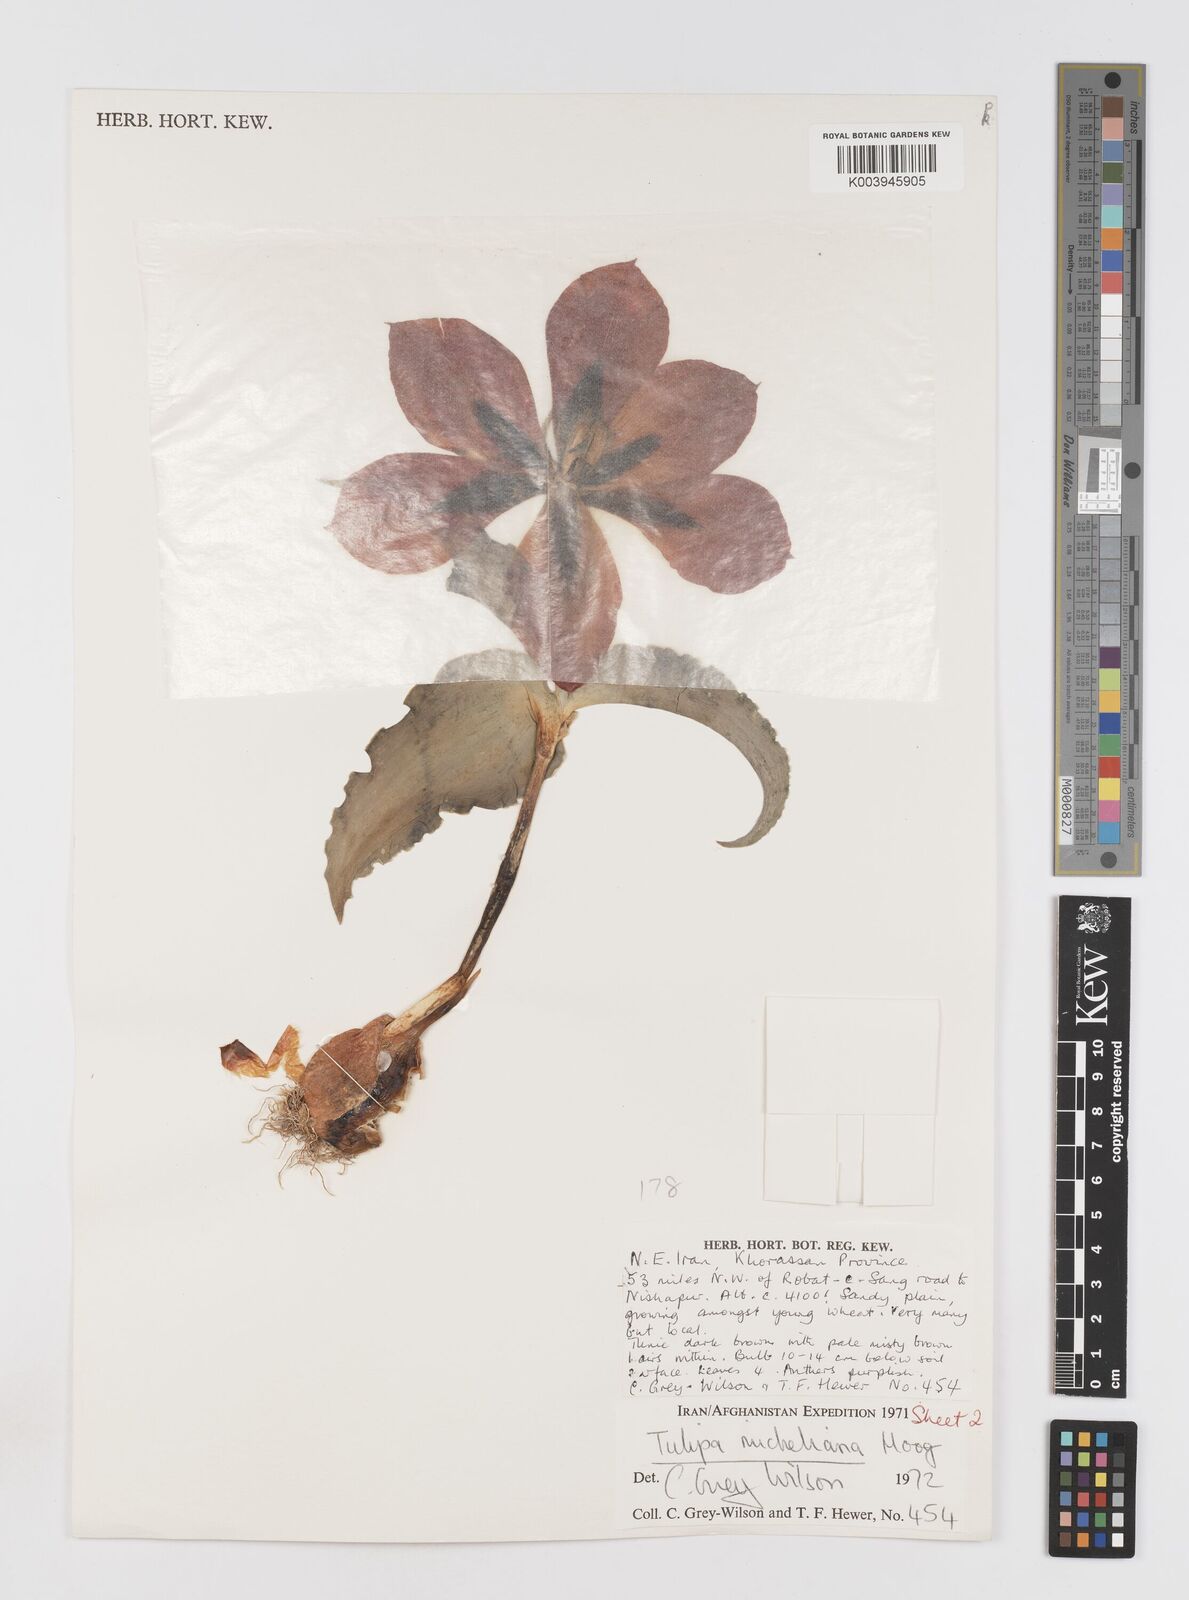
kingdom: Plantae
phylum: Tracheophyta
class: Liliopsida
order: Liliales
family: Liliaceae
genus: Tulipa
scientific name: Tulipa undulatifolia
